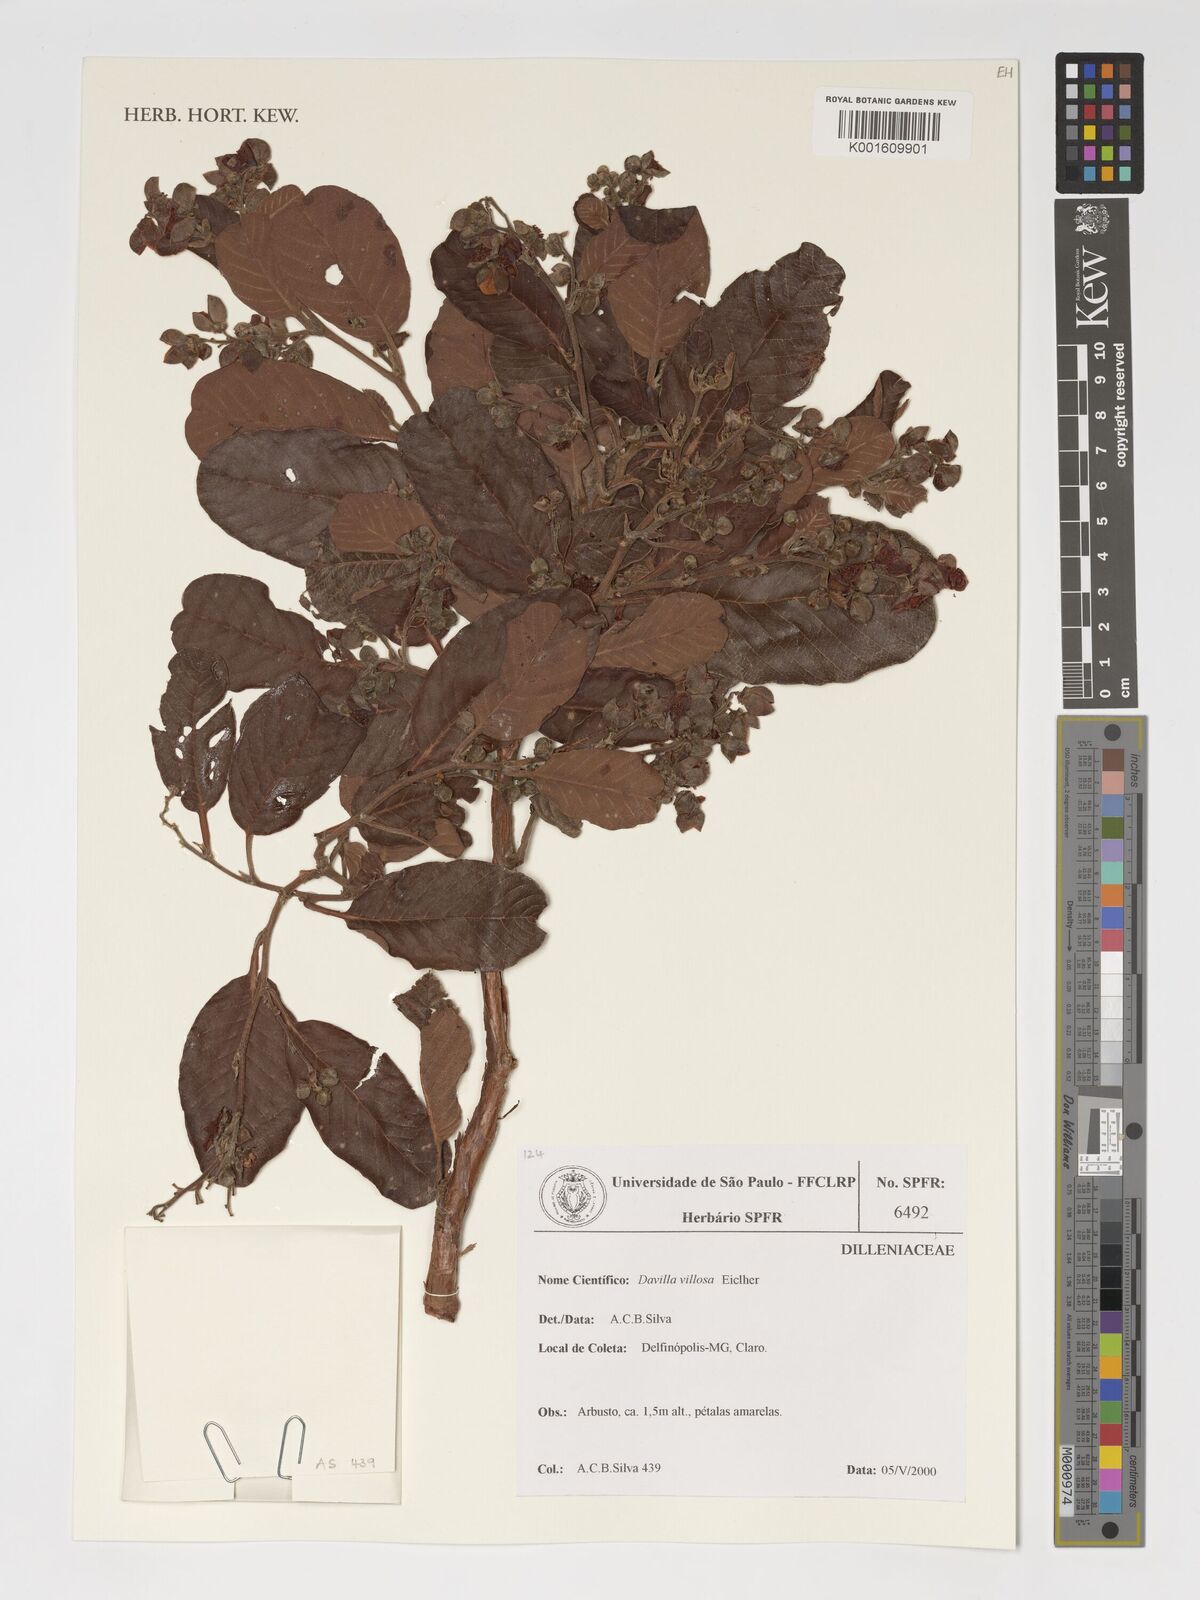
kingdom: Plantae
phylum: Tracheophyta
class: Magnoliopsida
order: Dilleniales
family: Dilleniaceae
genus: Davilla
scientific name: Davilla elliptica
